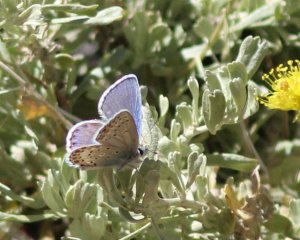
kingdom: Animalia
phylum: Arthropoda
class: Insecta
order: Lepidoptera
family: Lycaenidae
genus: Plebejus
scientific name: Plebejus fridayi
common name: Friday's Blue
